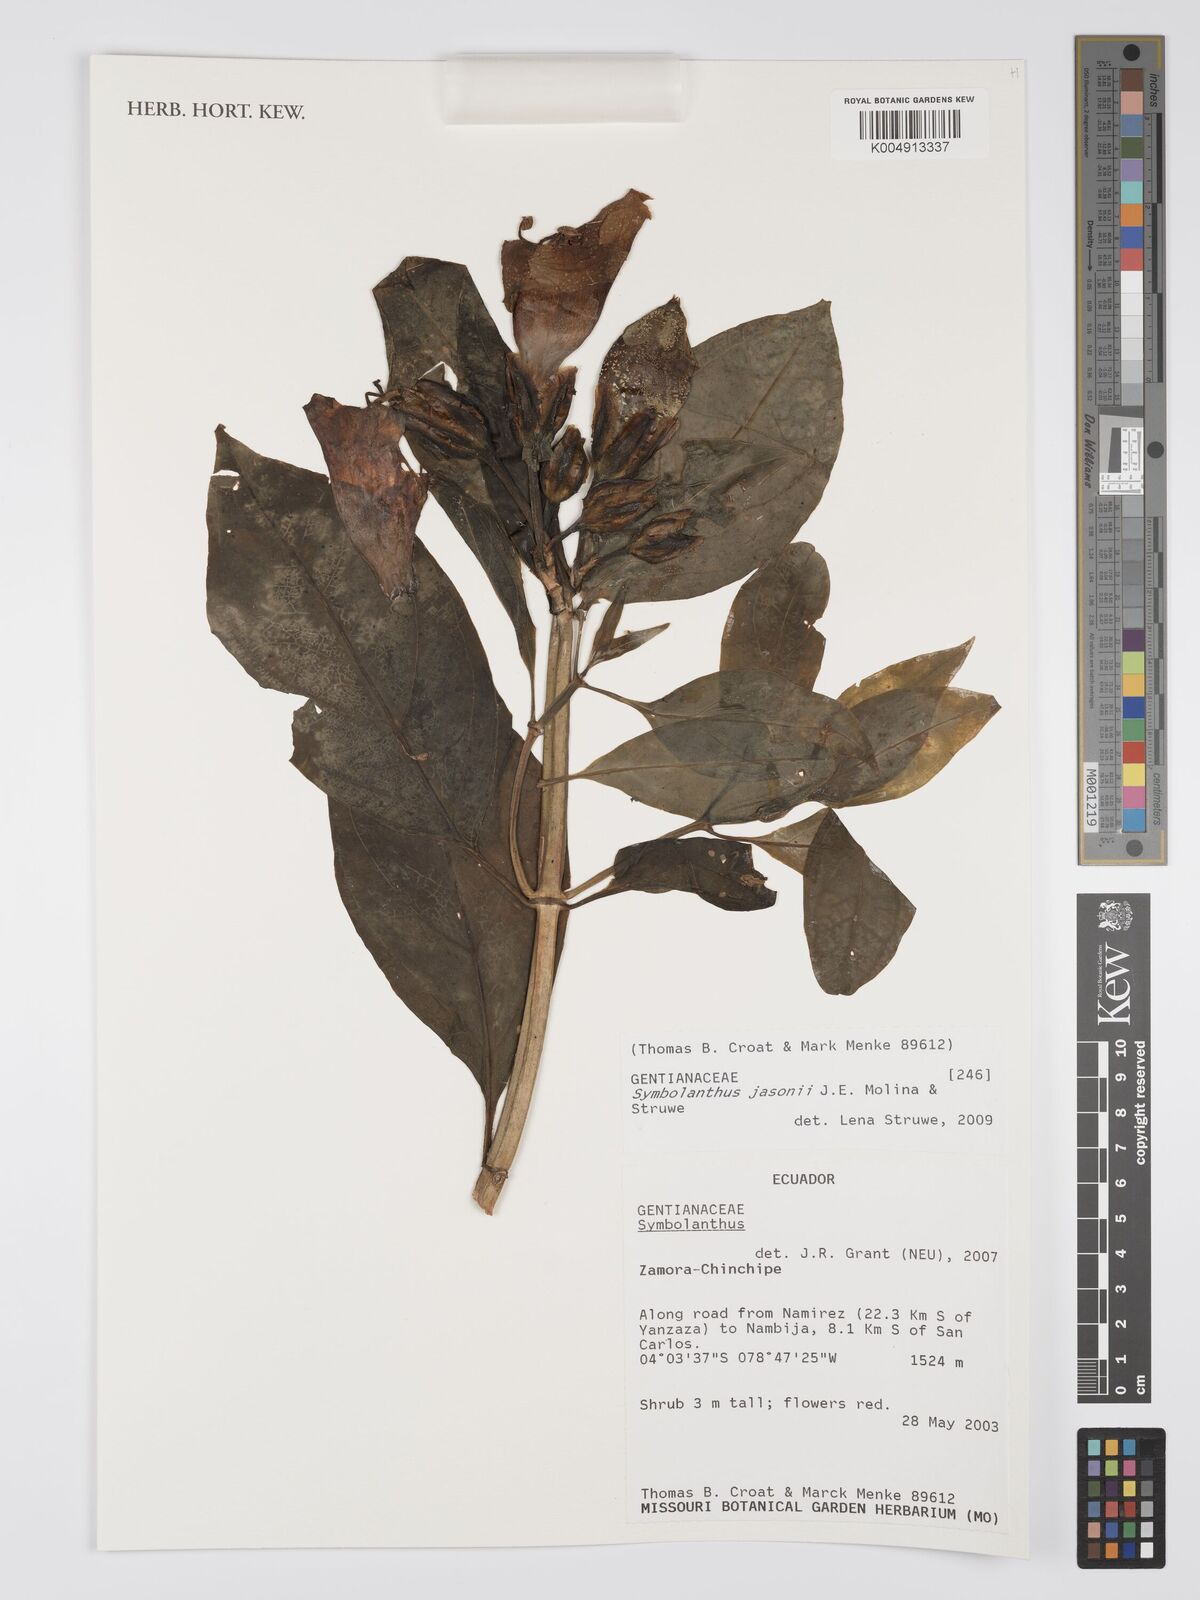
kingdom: Plantae
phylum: Tracheophyta
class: Magnoliopsida
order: Gentianales
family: Gentianaceae
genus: Symbolanthus
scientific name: Symbolanthus jasonii
